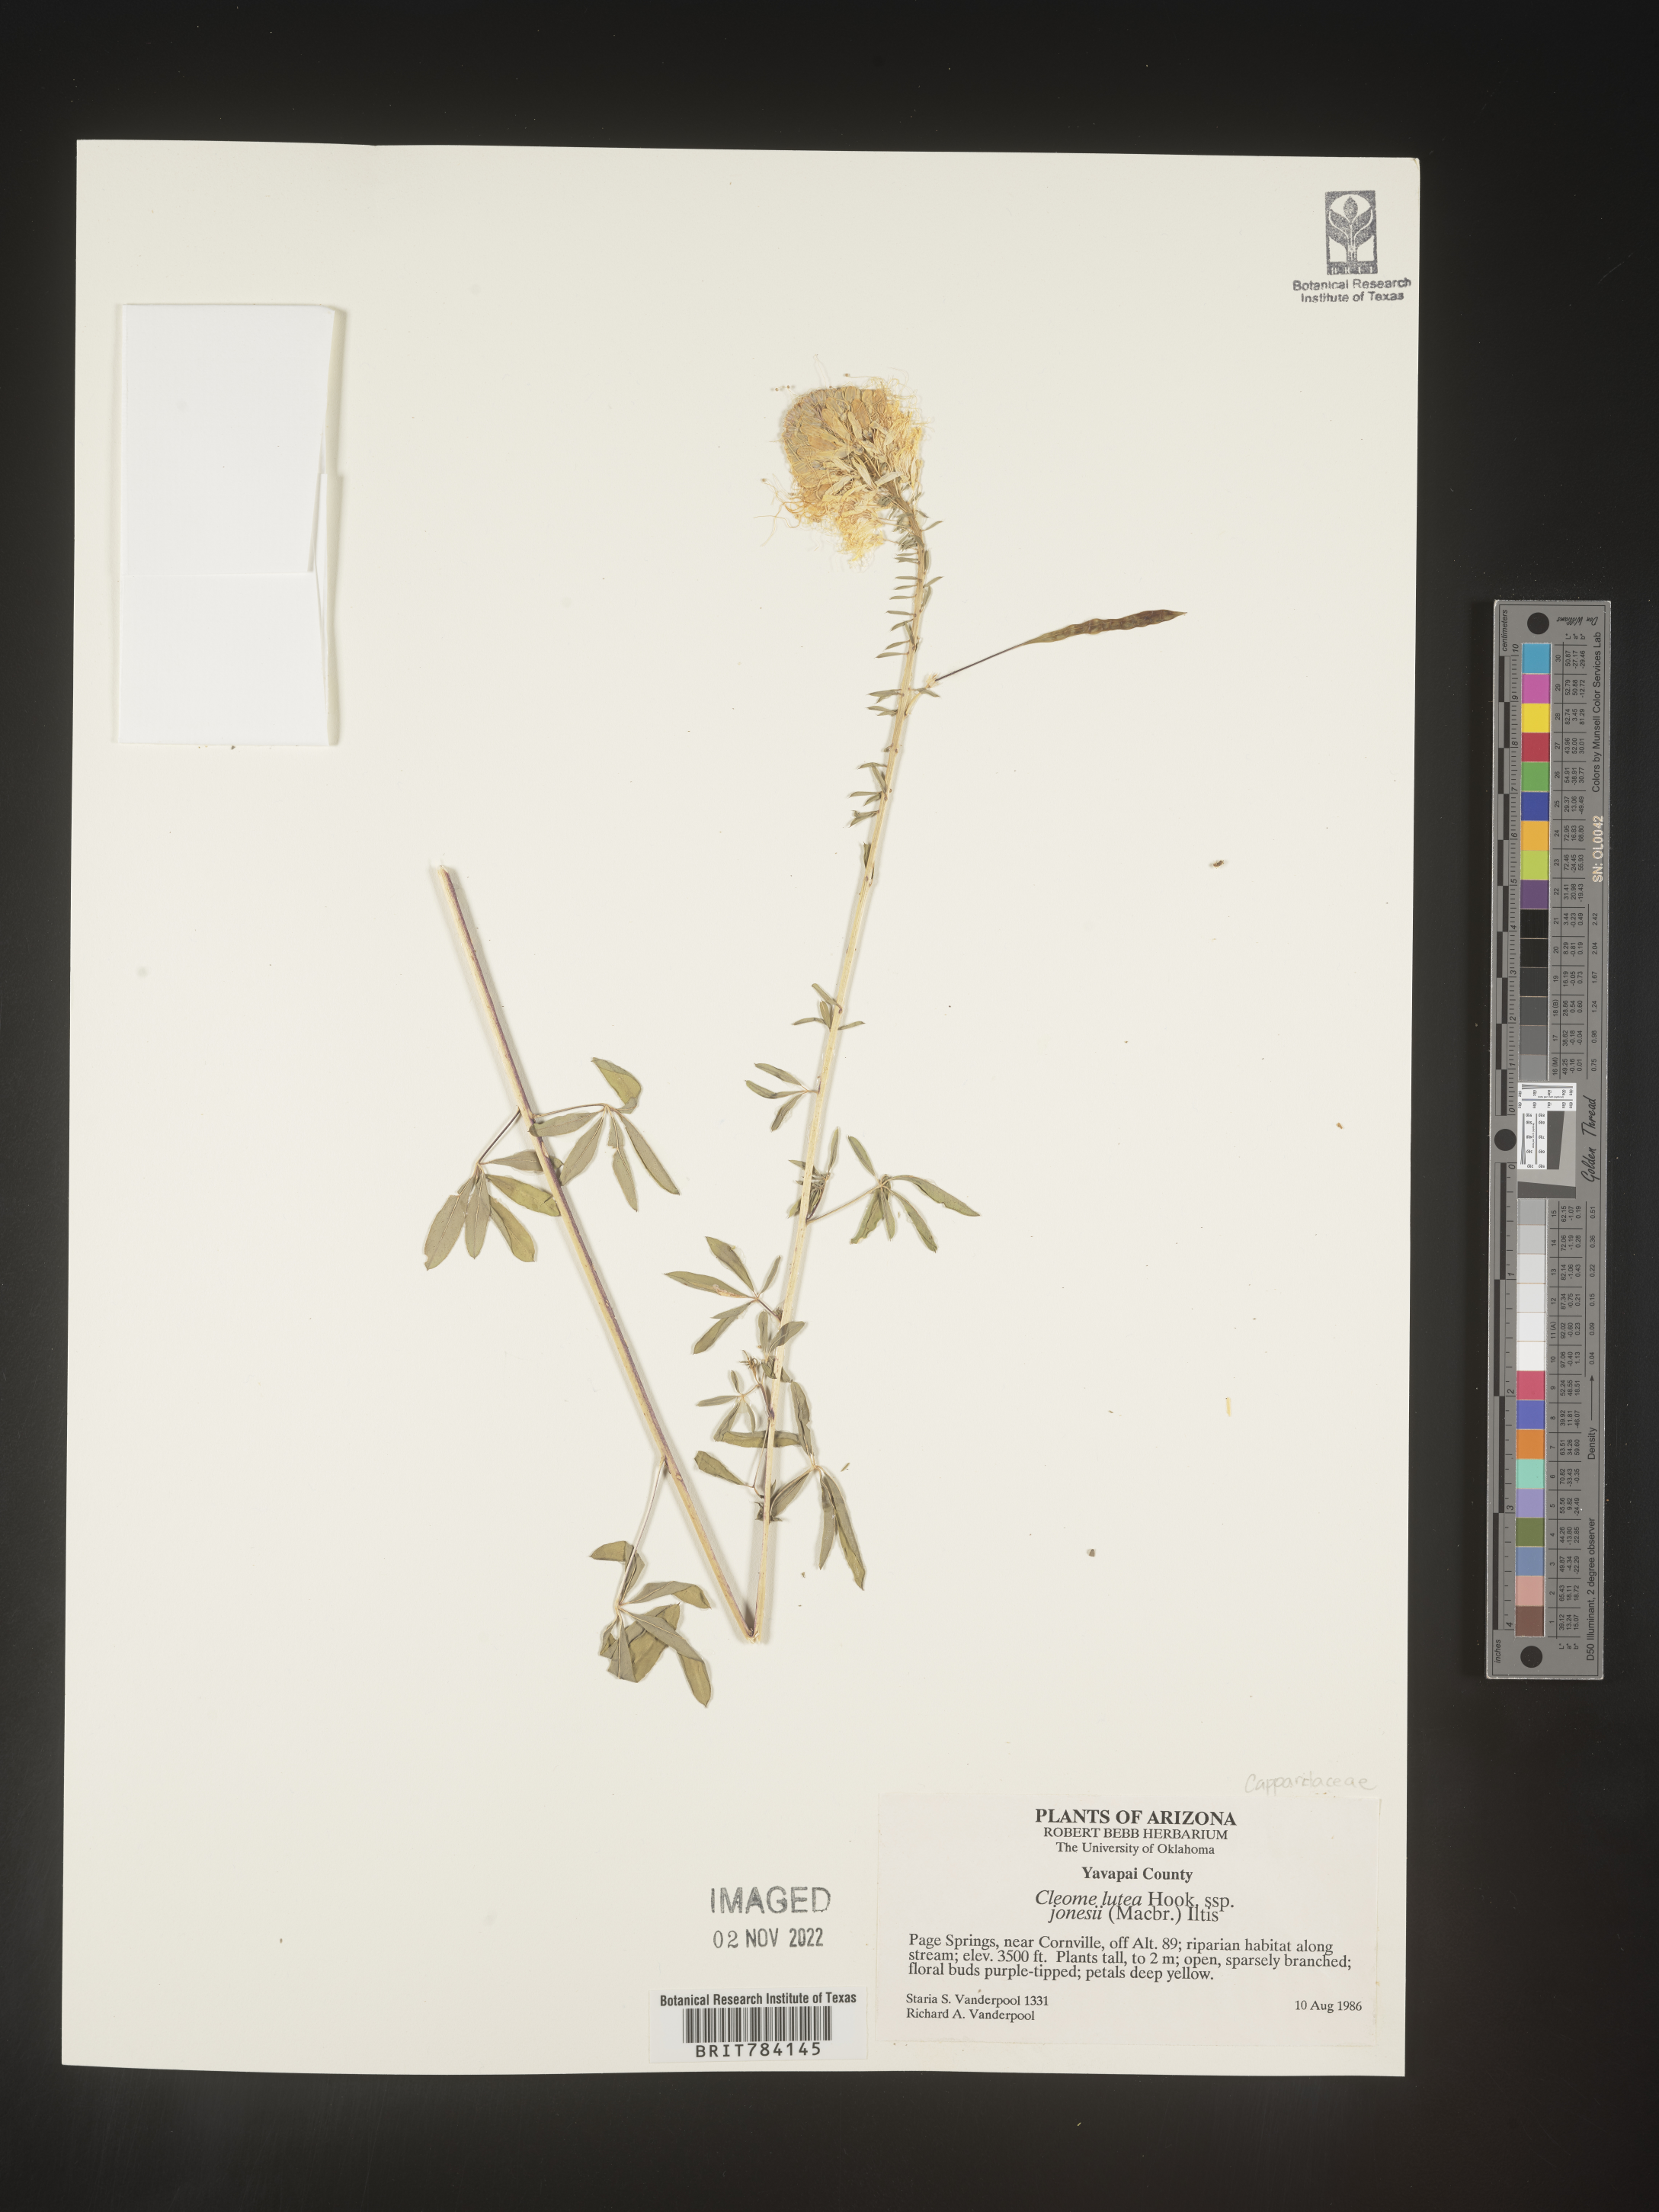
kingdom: Plantae
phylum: Tracheophyta
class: Magnoliopsida
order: Brassicales
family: Cleomaceae
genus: Cleomella
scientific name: Cleomella lutea
